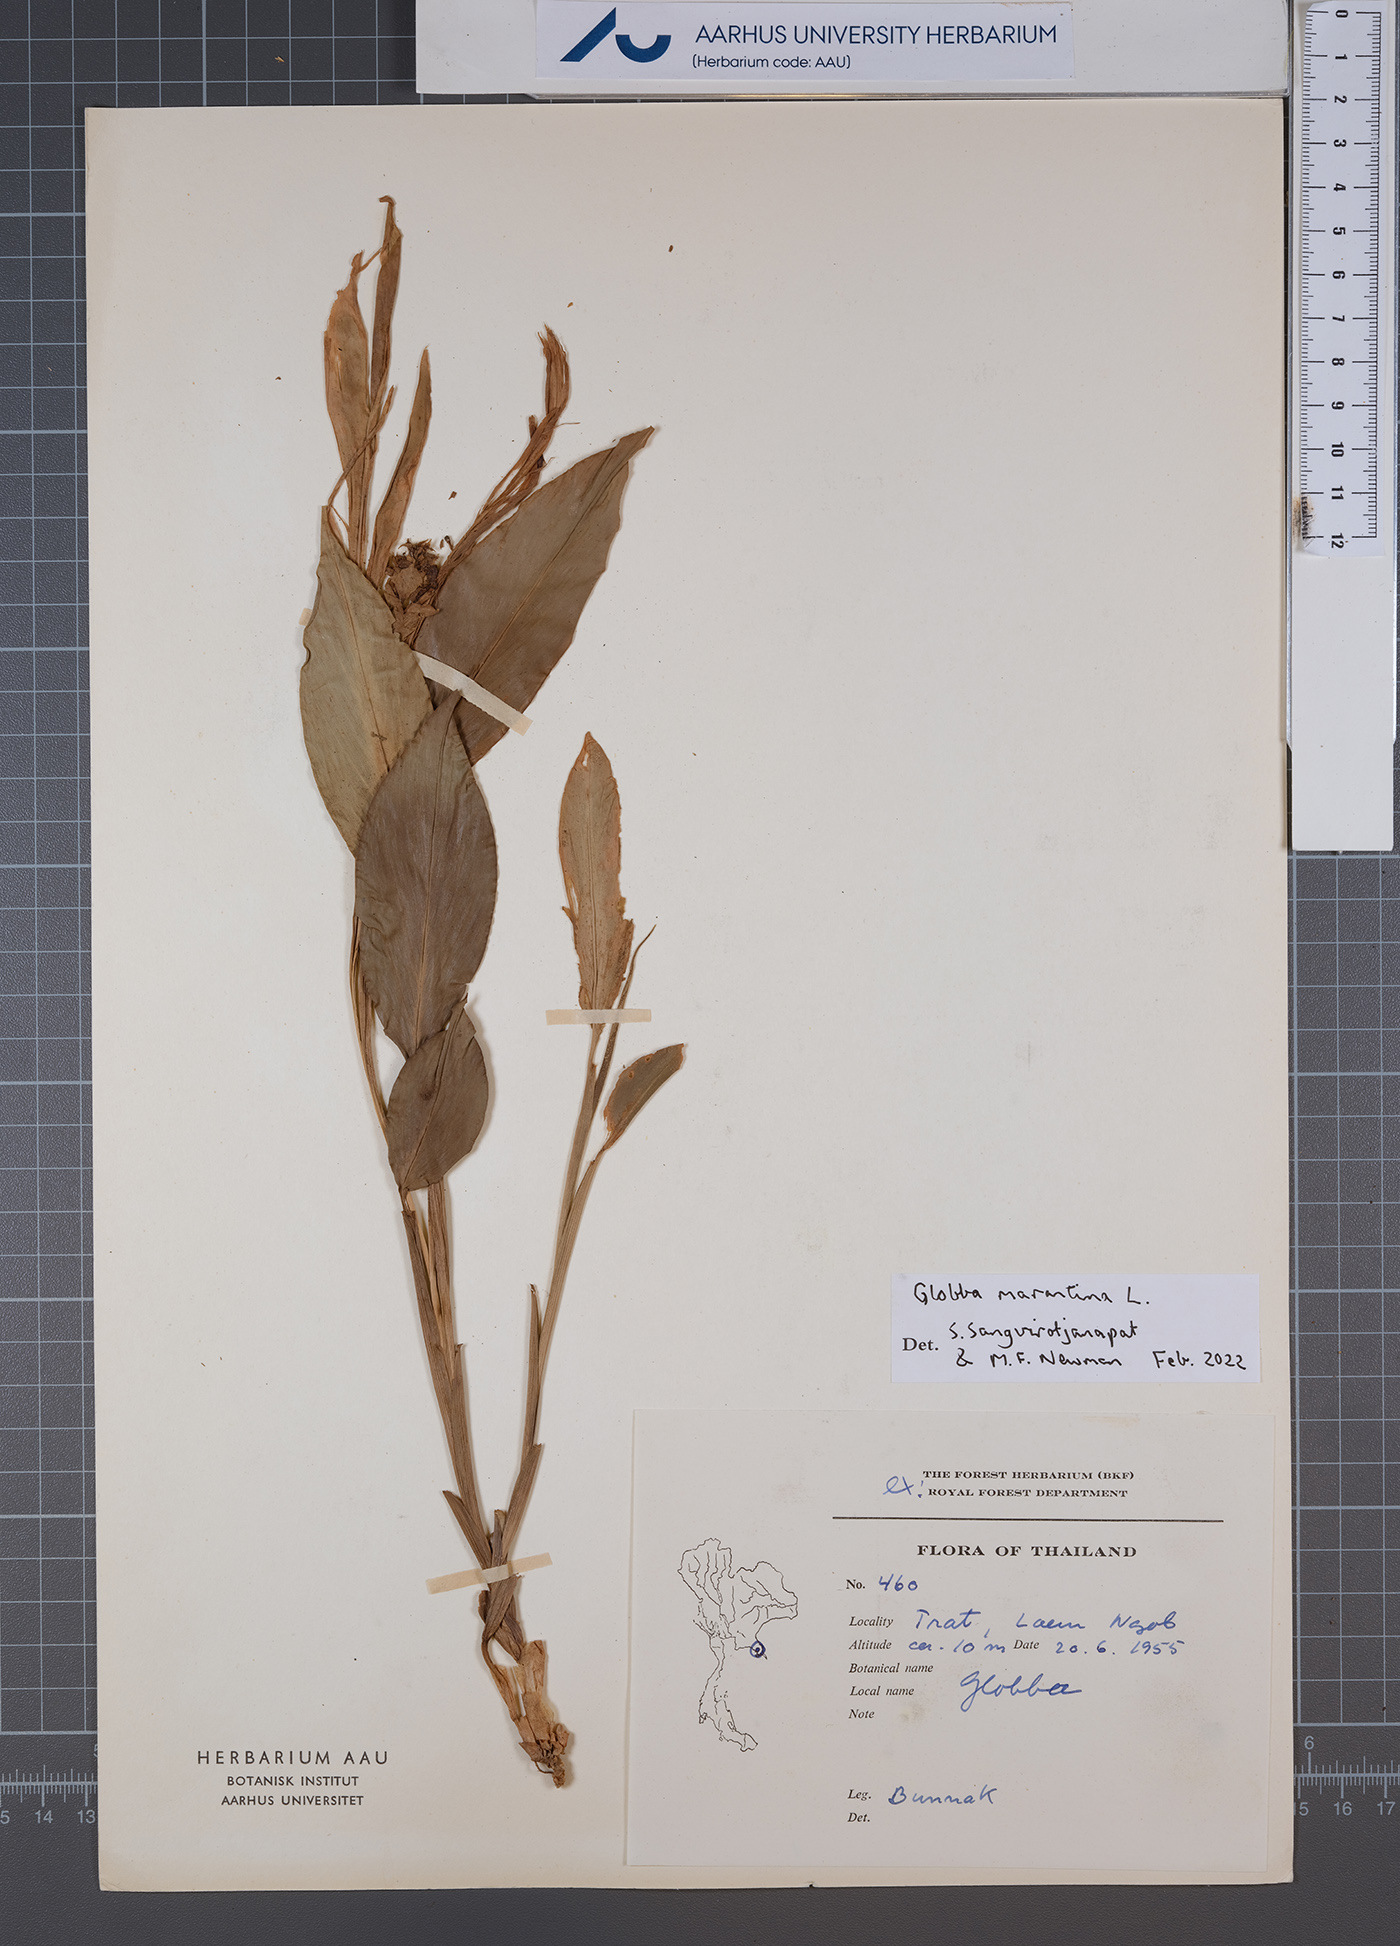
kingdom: Plantae
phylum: Tracheophyta
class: Liliopsida
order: Zingiberales
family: Zingiberaceae
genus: Globba
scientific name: Globba marantina
